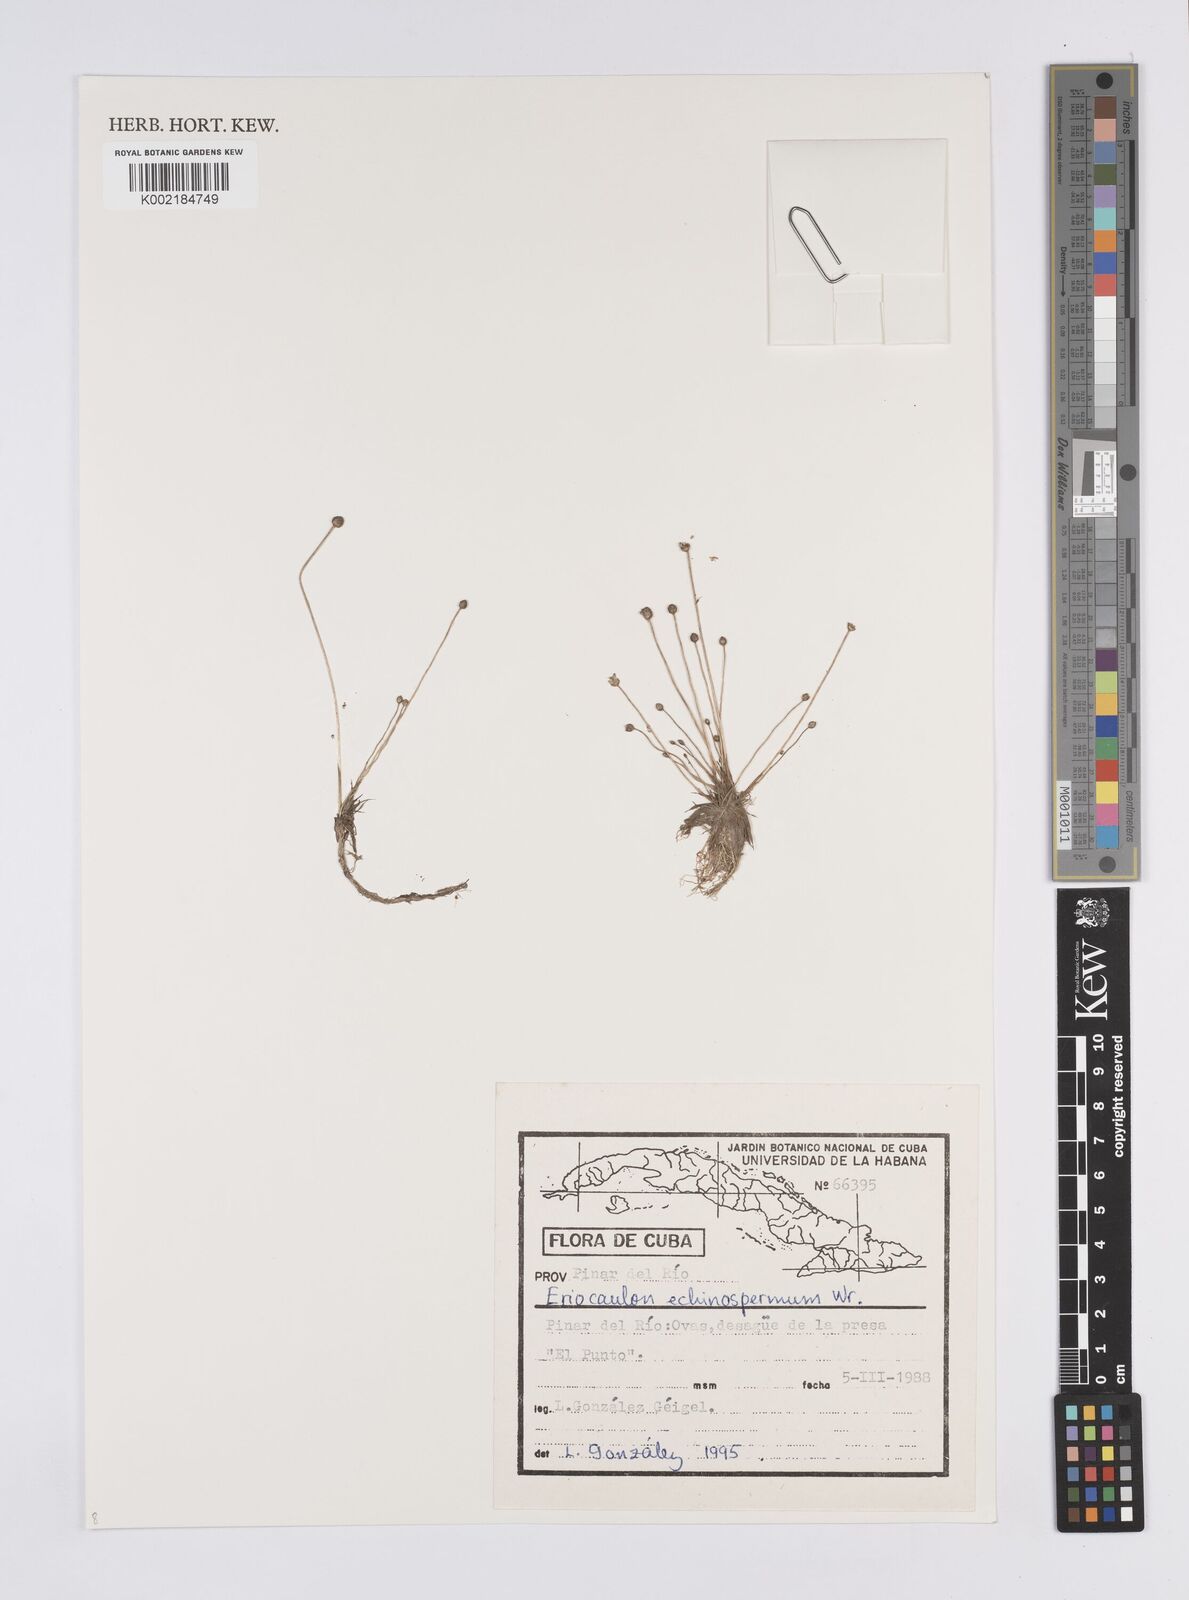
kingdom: Plantae
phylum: Tracheophyta
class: Liliopsida
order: Poales
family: Eriocaulaceae
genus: Eriocaulon
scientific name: Eriocaulon echinospermum
